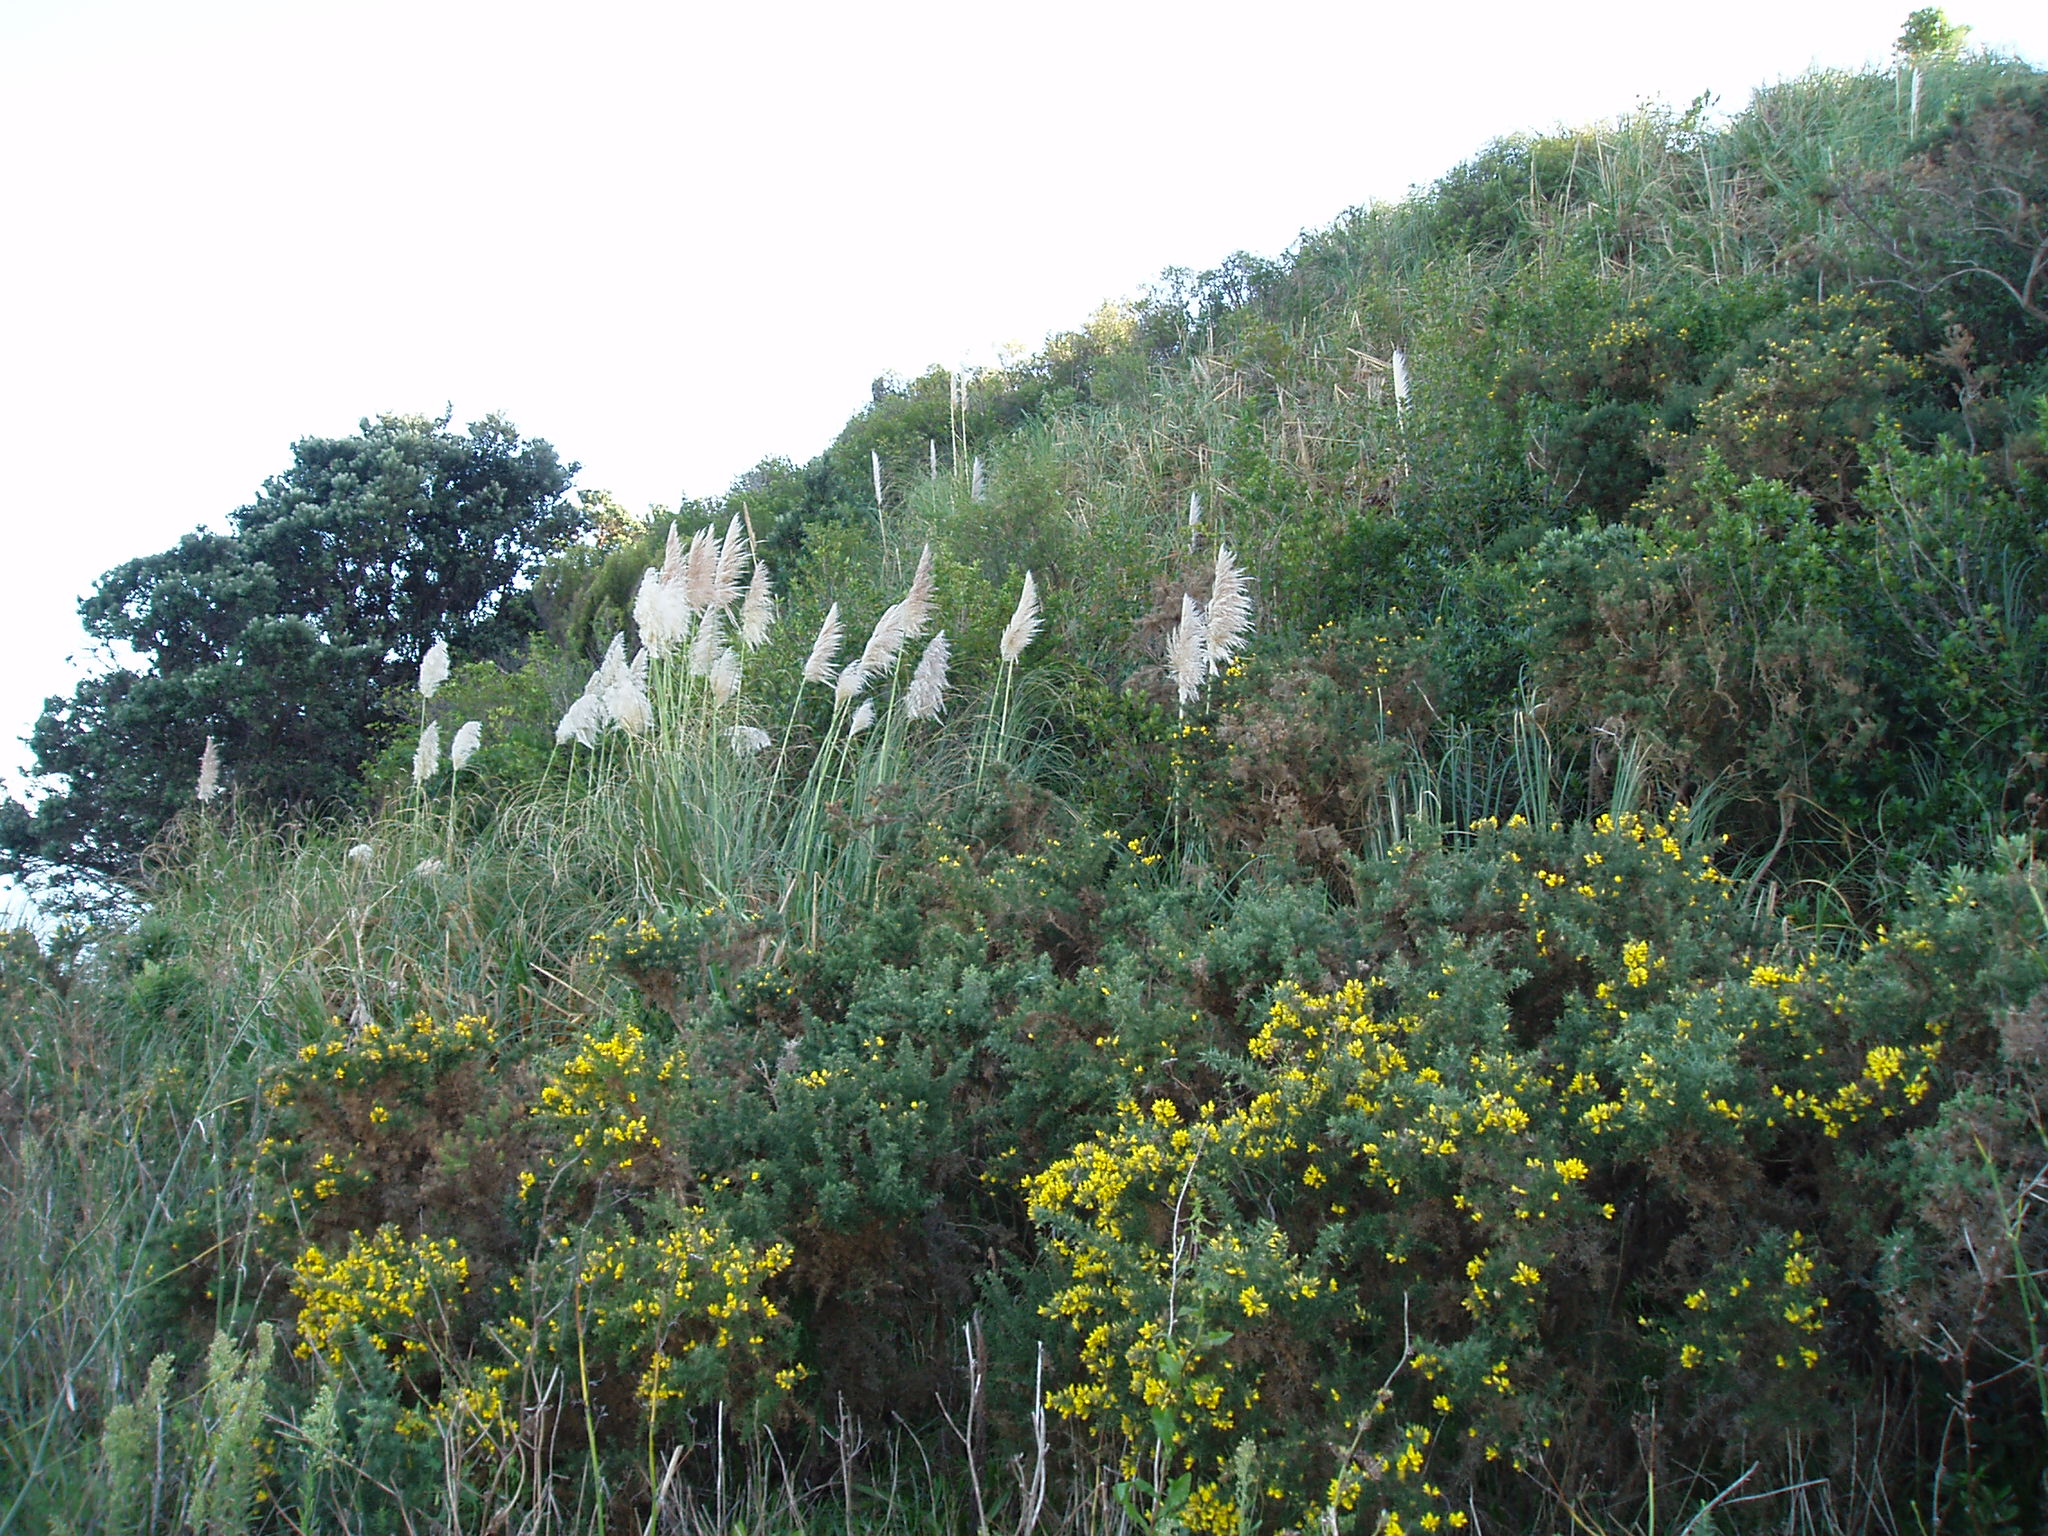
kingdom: Plantae
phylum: Tracheophyta
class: Liliopsida
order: Poales
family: Poaceae
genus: Cortaderia
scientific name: Cortaderia jubata
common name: Purple pampas grass
